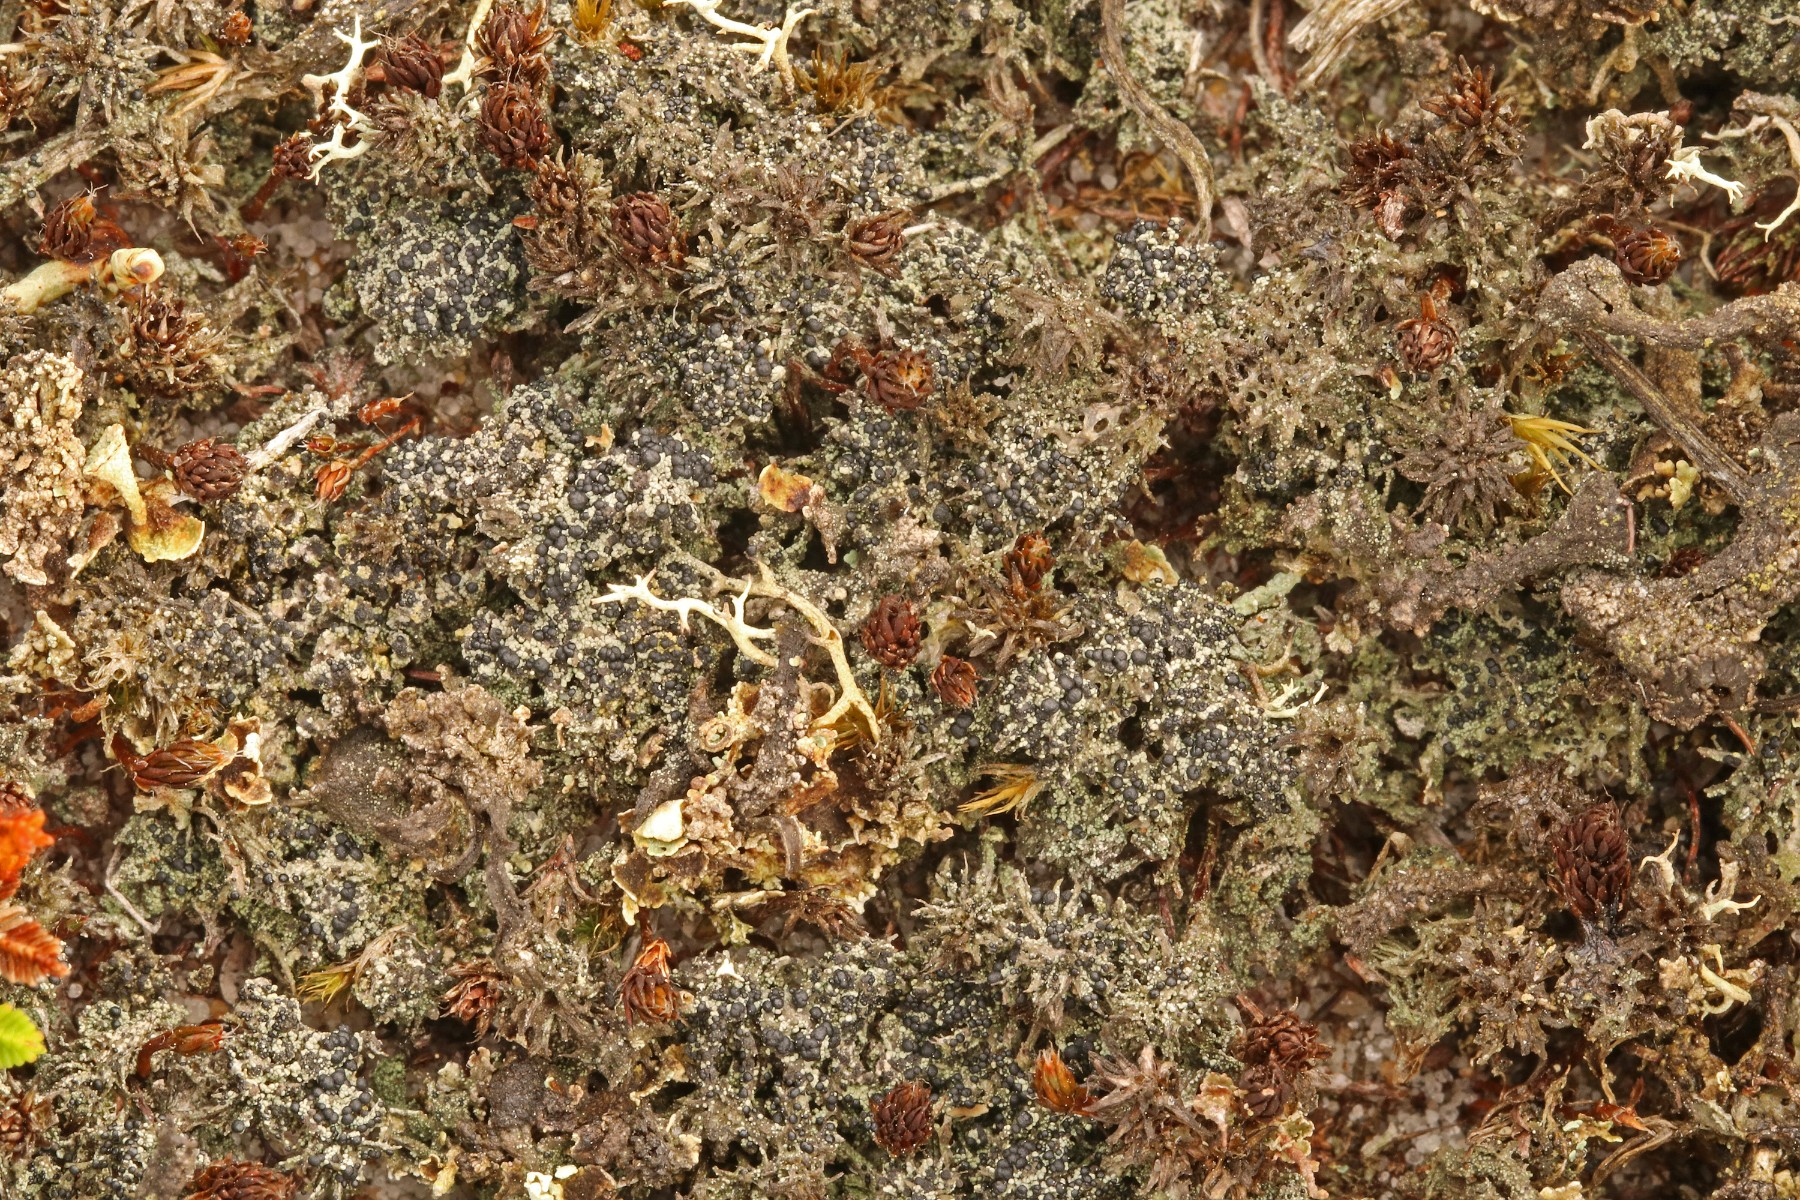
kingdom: Fungi
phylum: Ascomycota
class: Lecanoromycetes
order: Lecanorales
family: Byssolomataceae
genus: Micarea
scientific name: Micarea lignaria
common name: tørve-knaplav
